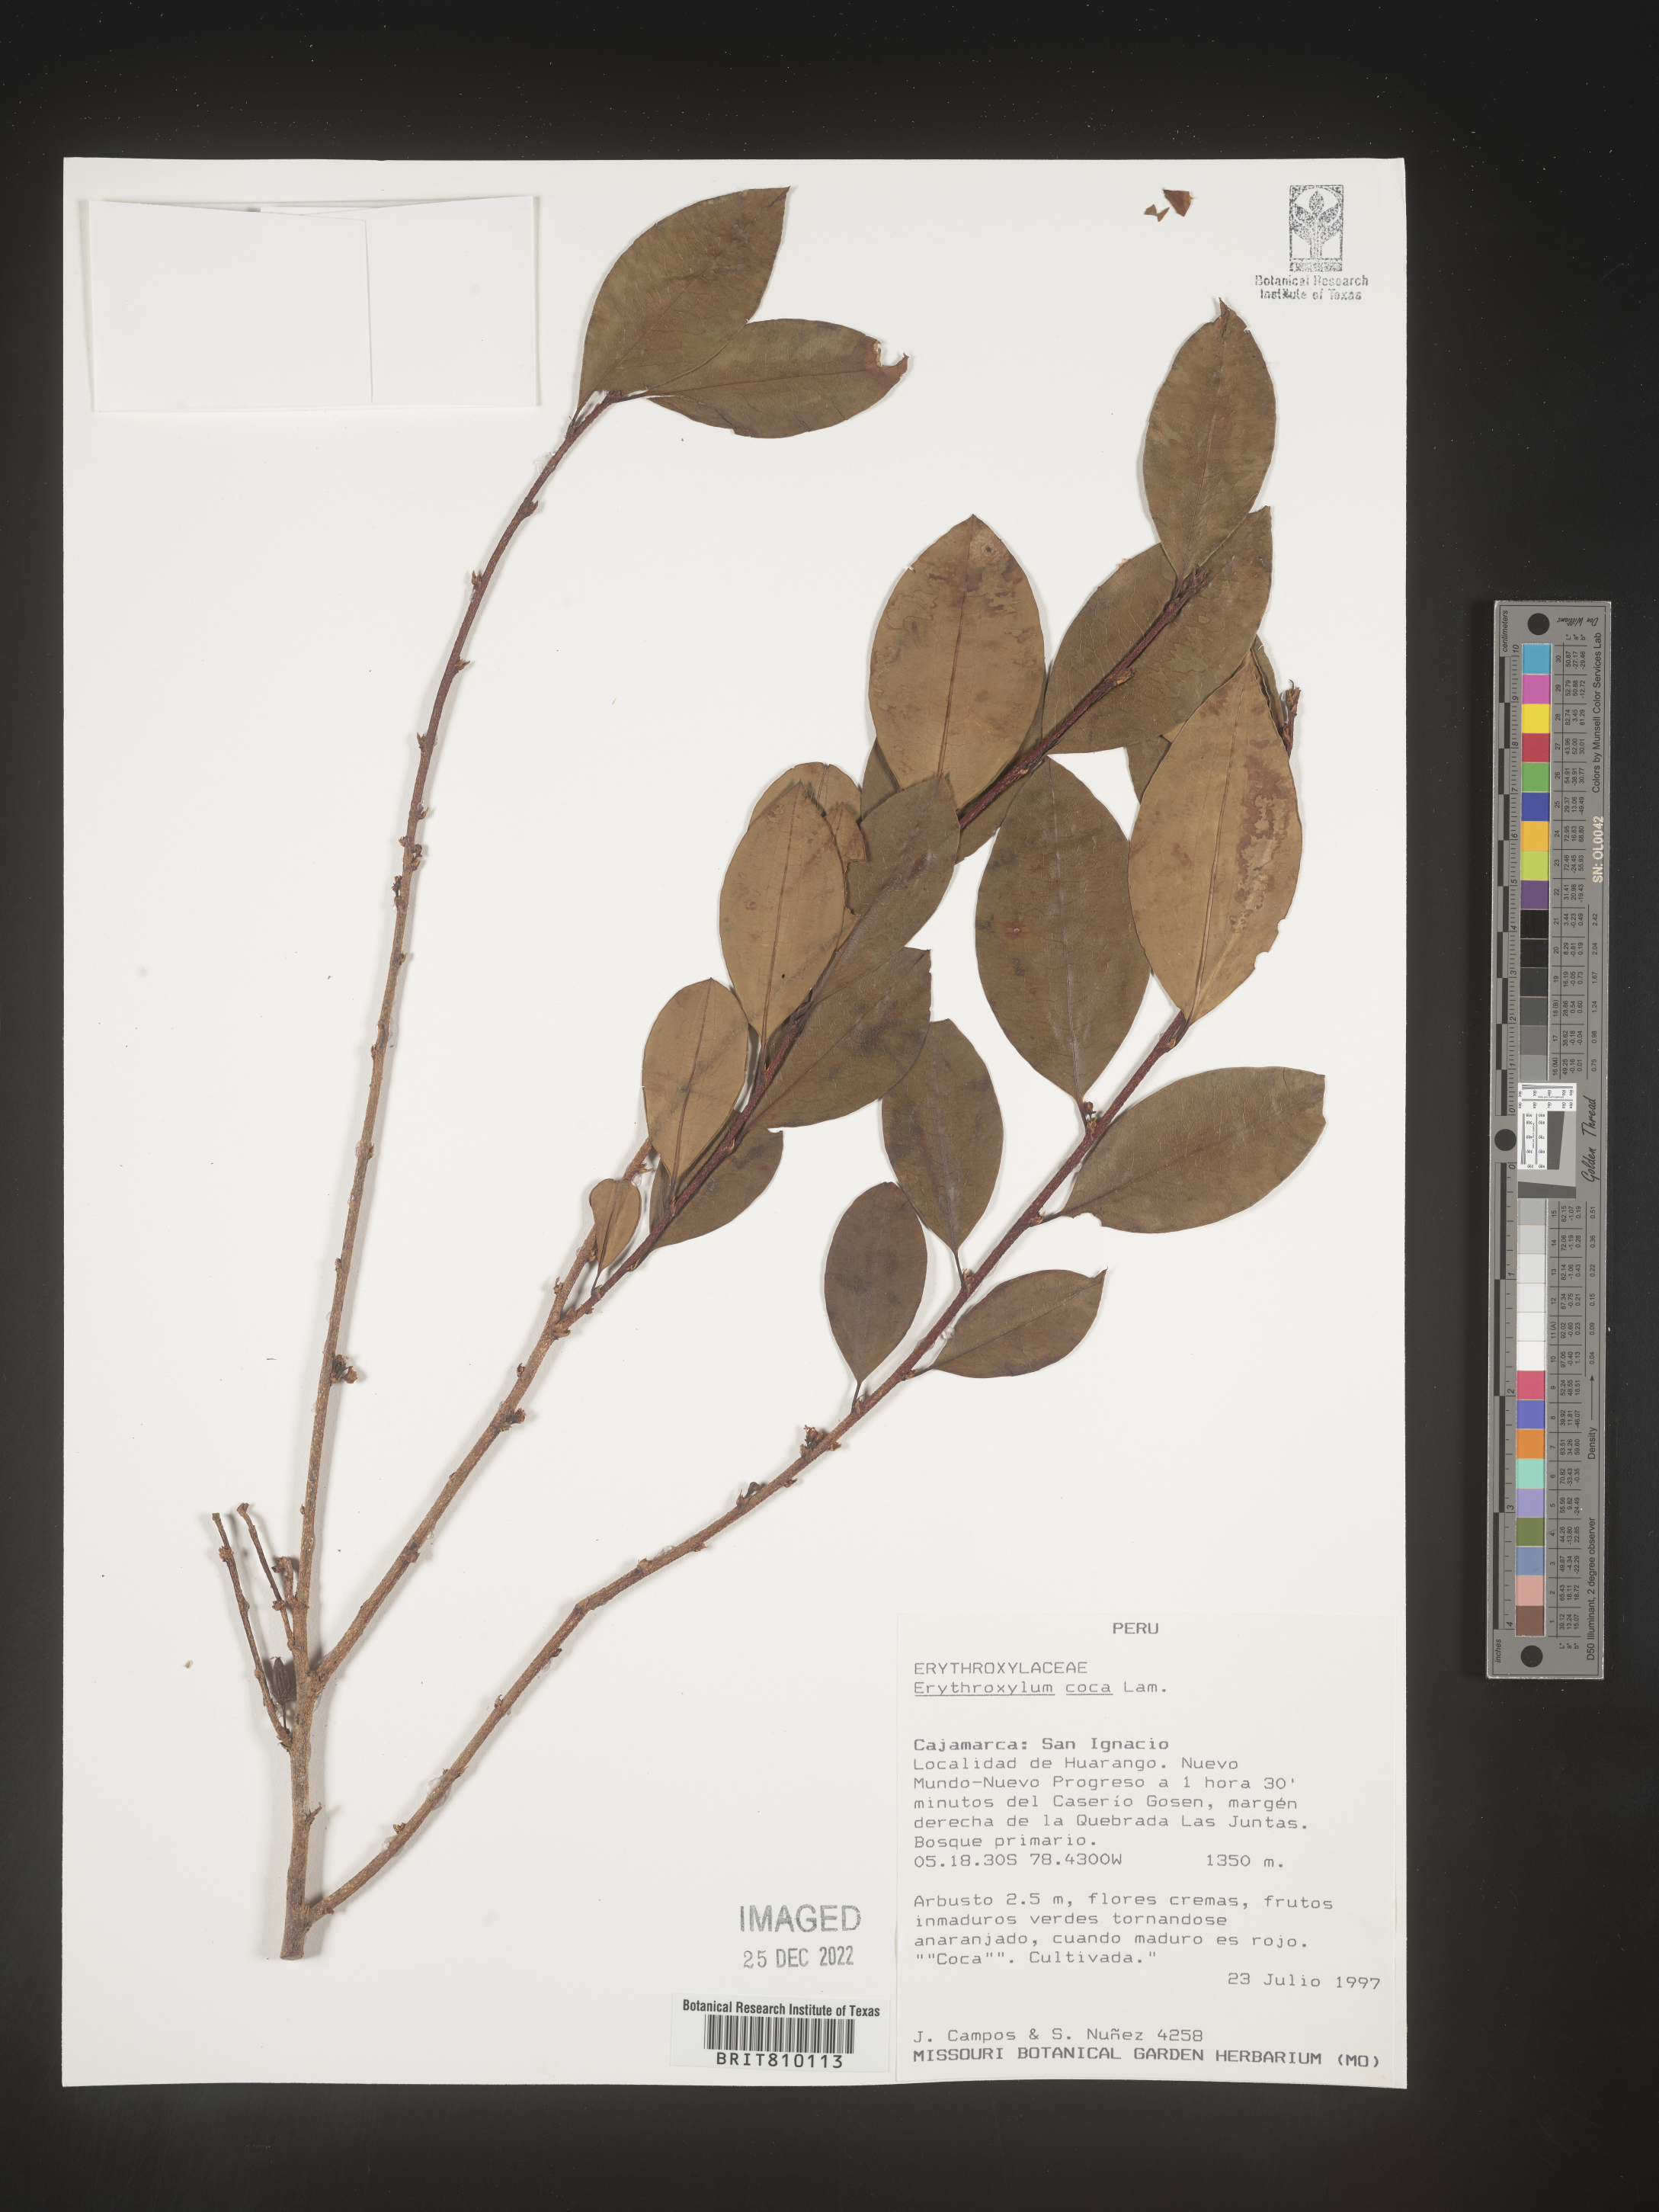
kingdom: Plantae
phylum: Tracheophyta
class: Magnoliopsida
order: Malpighiales
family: Erythroxylaceae
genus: Erythroxylum
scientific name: Erythroxylum
